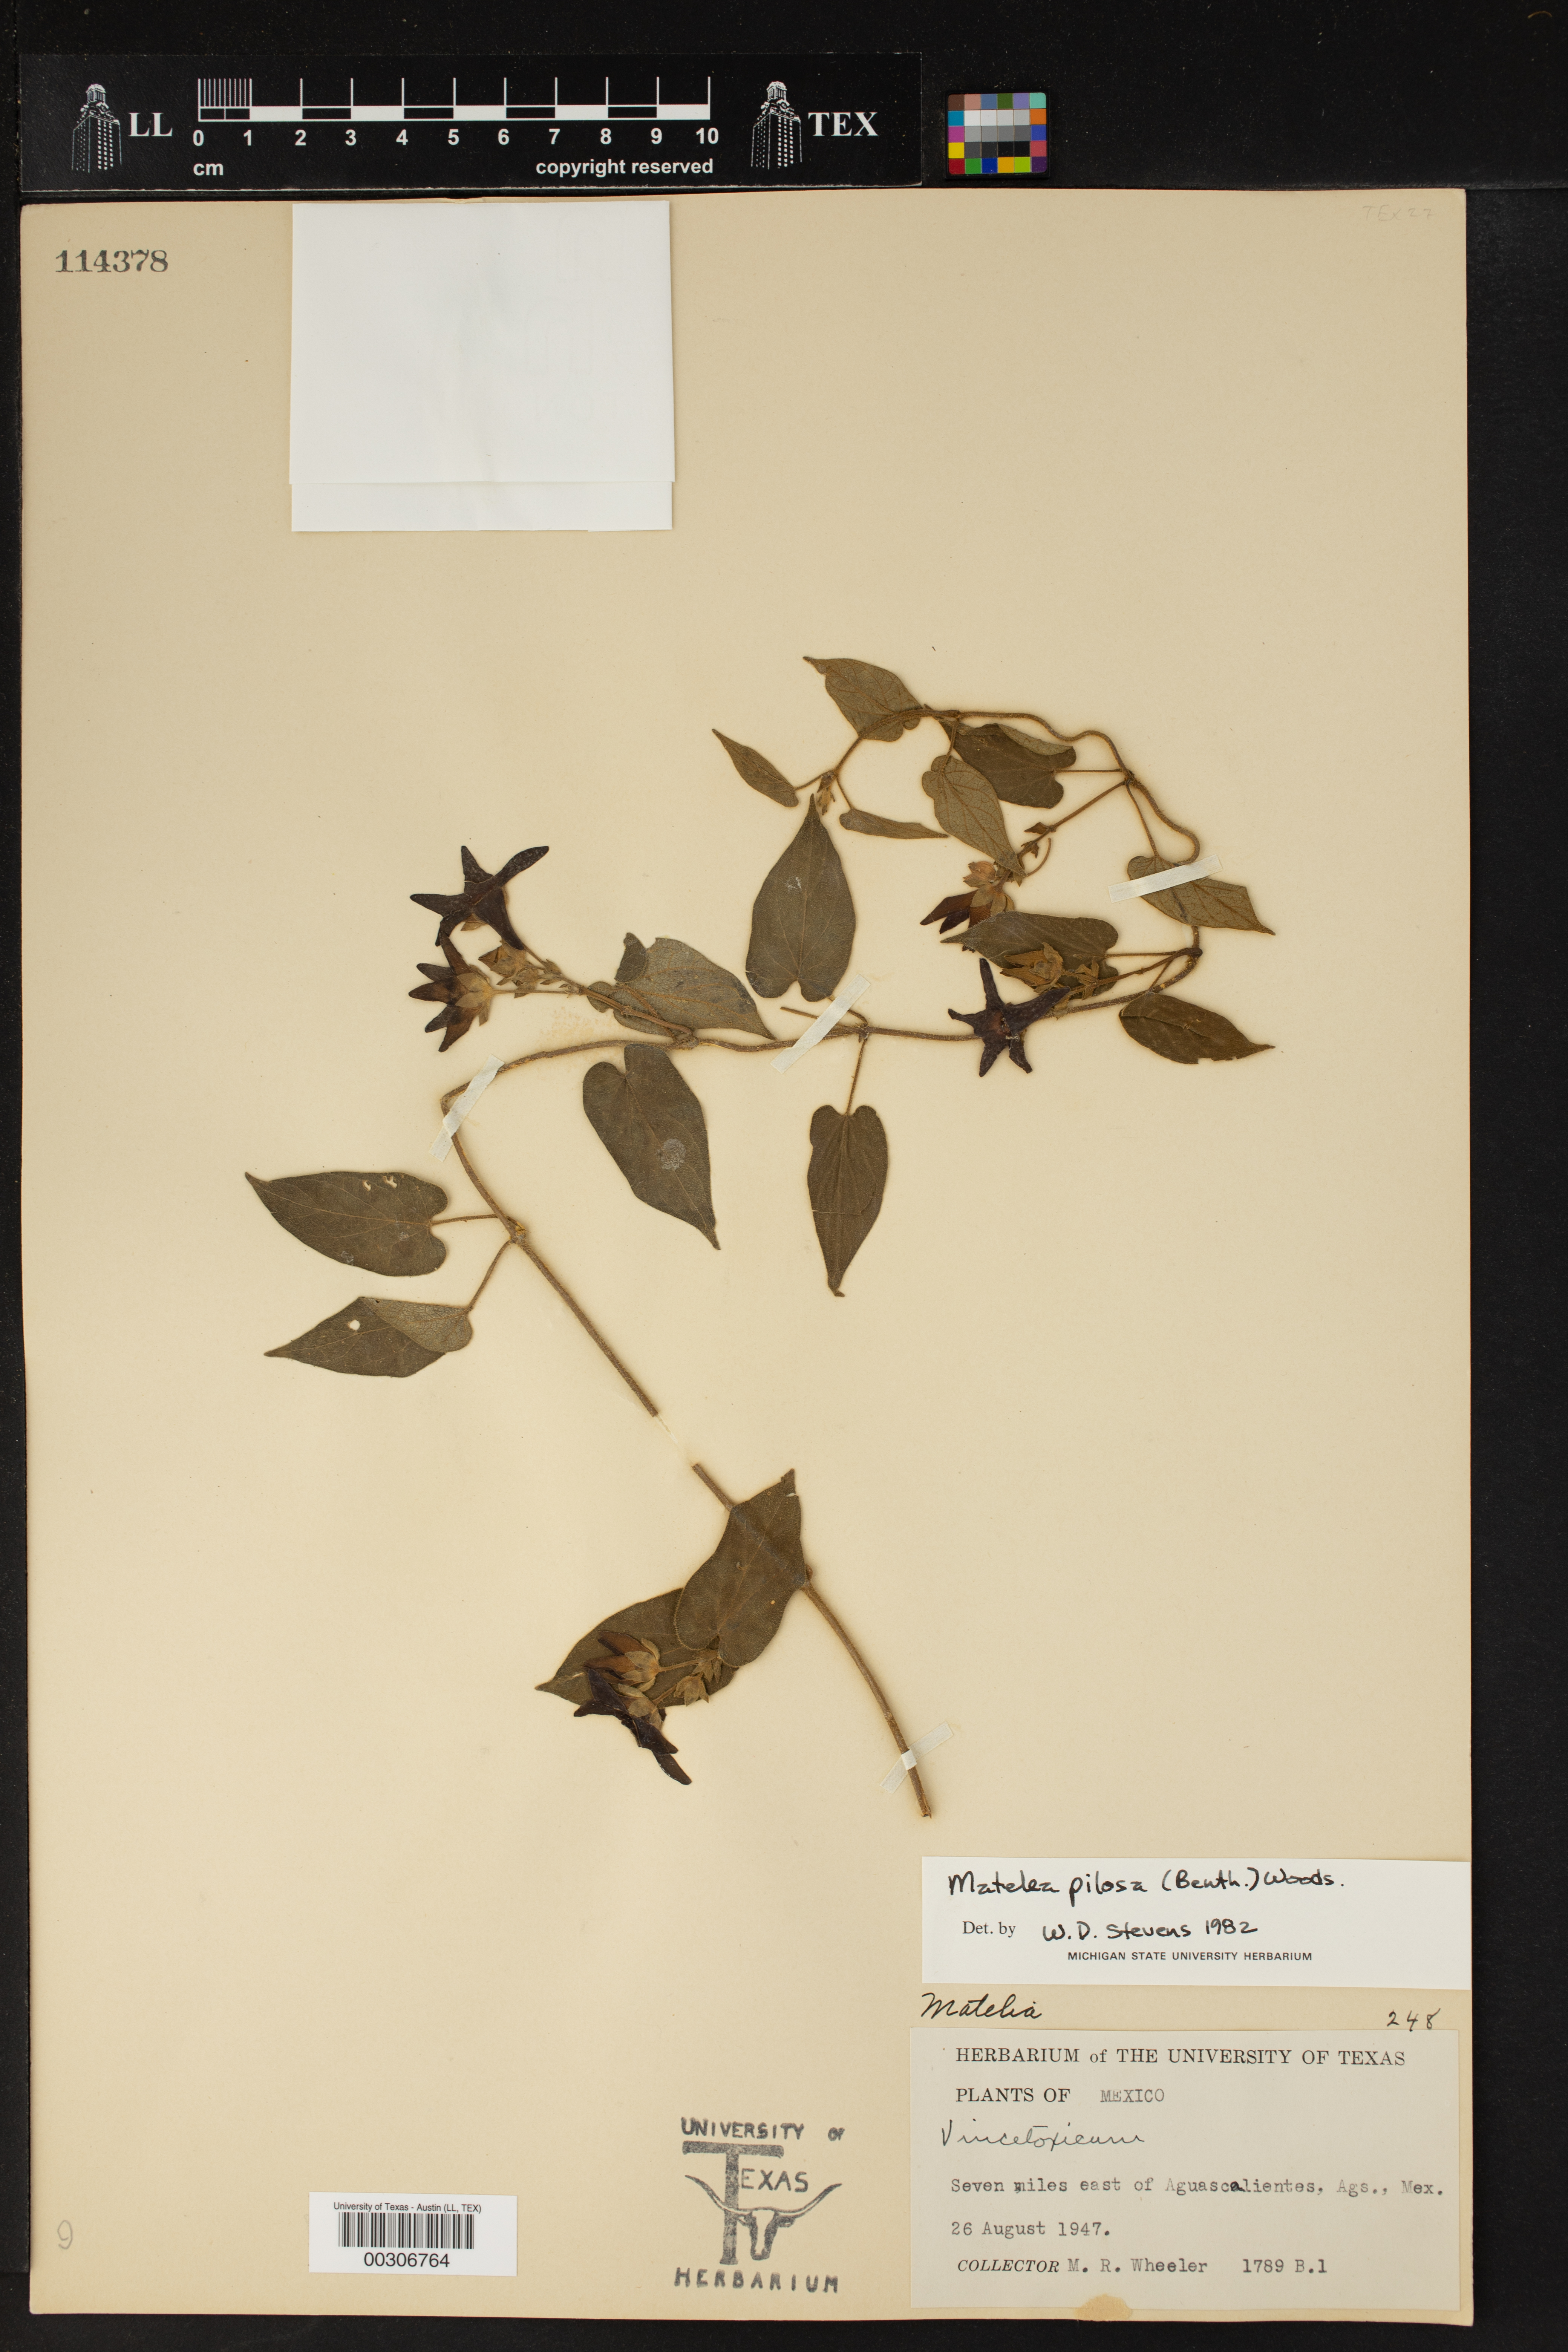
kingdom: Plantae
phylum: Tracheophyta
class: Magnoliopsida
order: Gentianales
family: Apocynaceae
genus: Matelea
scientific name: Matelea pilosa
